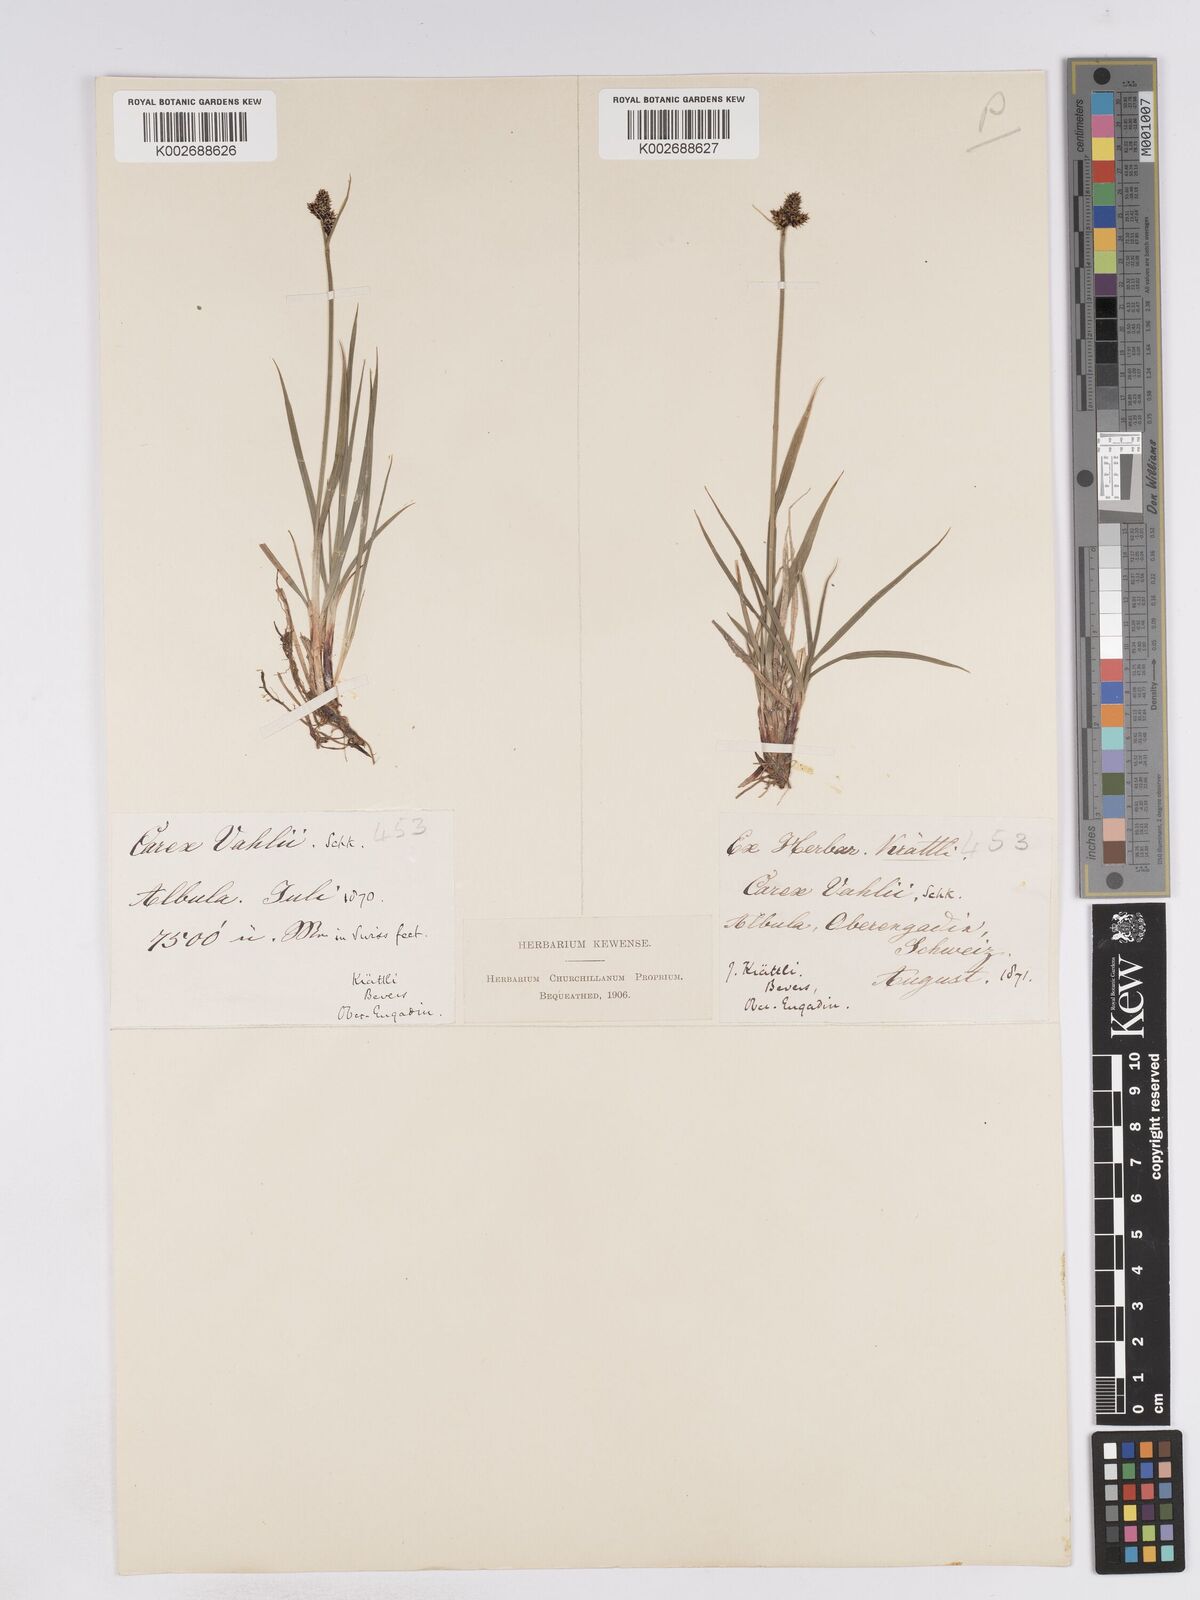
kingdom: Plantae
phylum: Tracheophyta
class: Liliopsida
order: Poales
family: Cyperaceae
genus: Carex
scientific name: Carex norvegica
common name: Close-headed alpine-sedge
